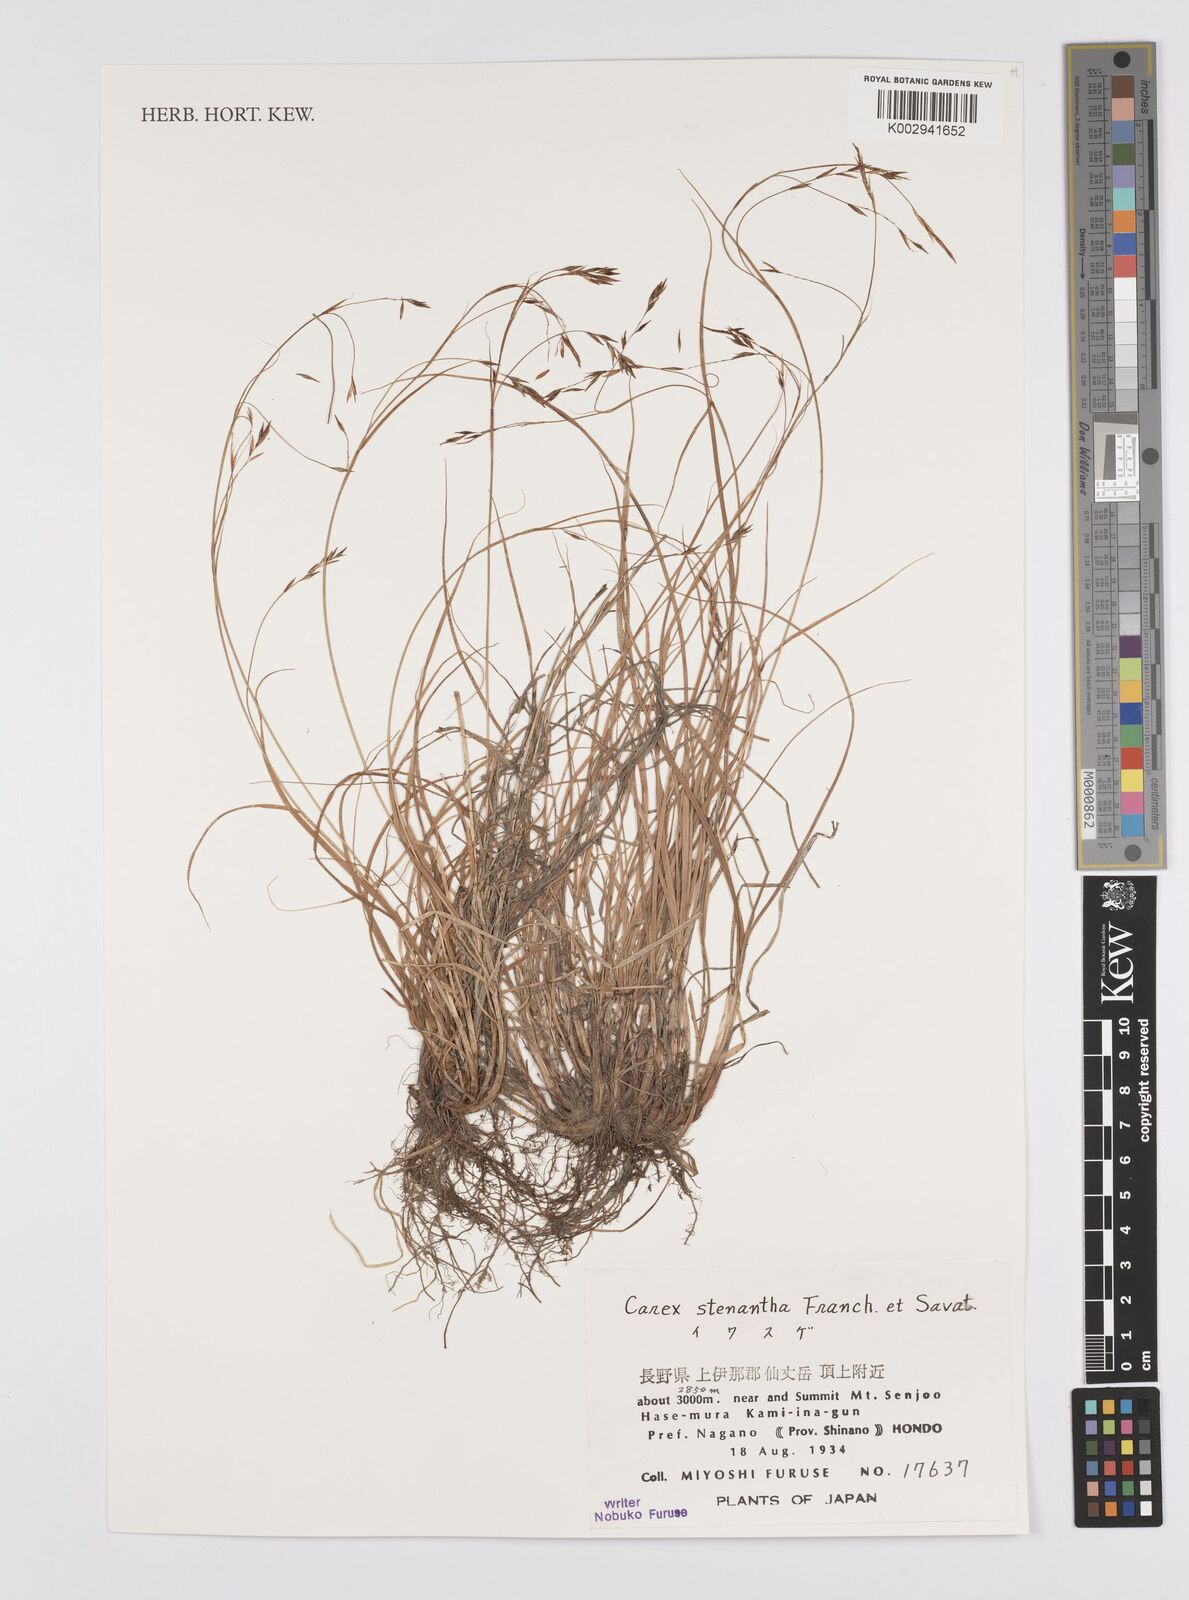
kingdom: Plantae
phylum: Tracheophyta
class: Liliopsida
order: Poales
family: Cyperaceae
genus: Carex
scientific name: Carex stenantha
